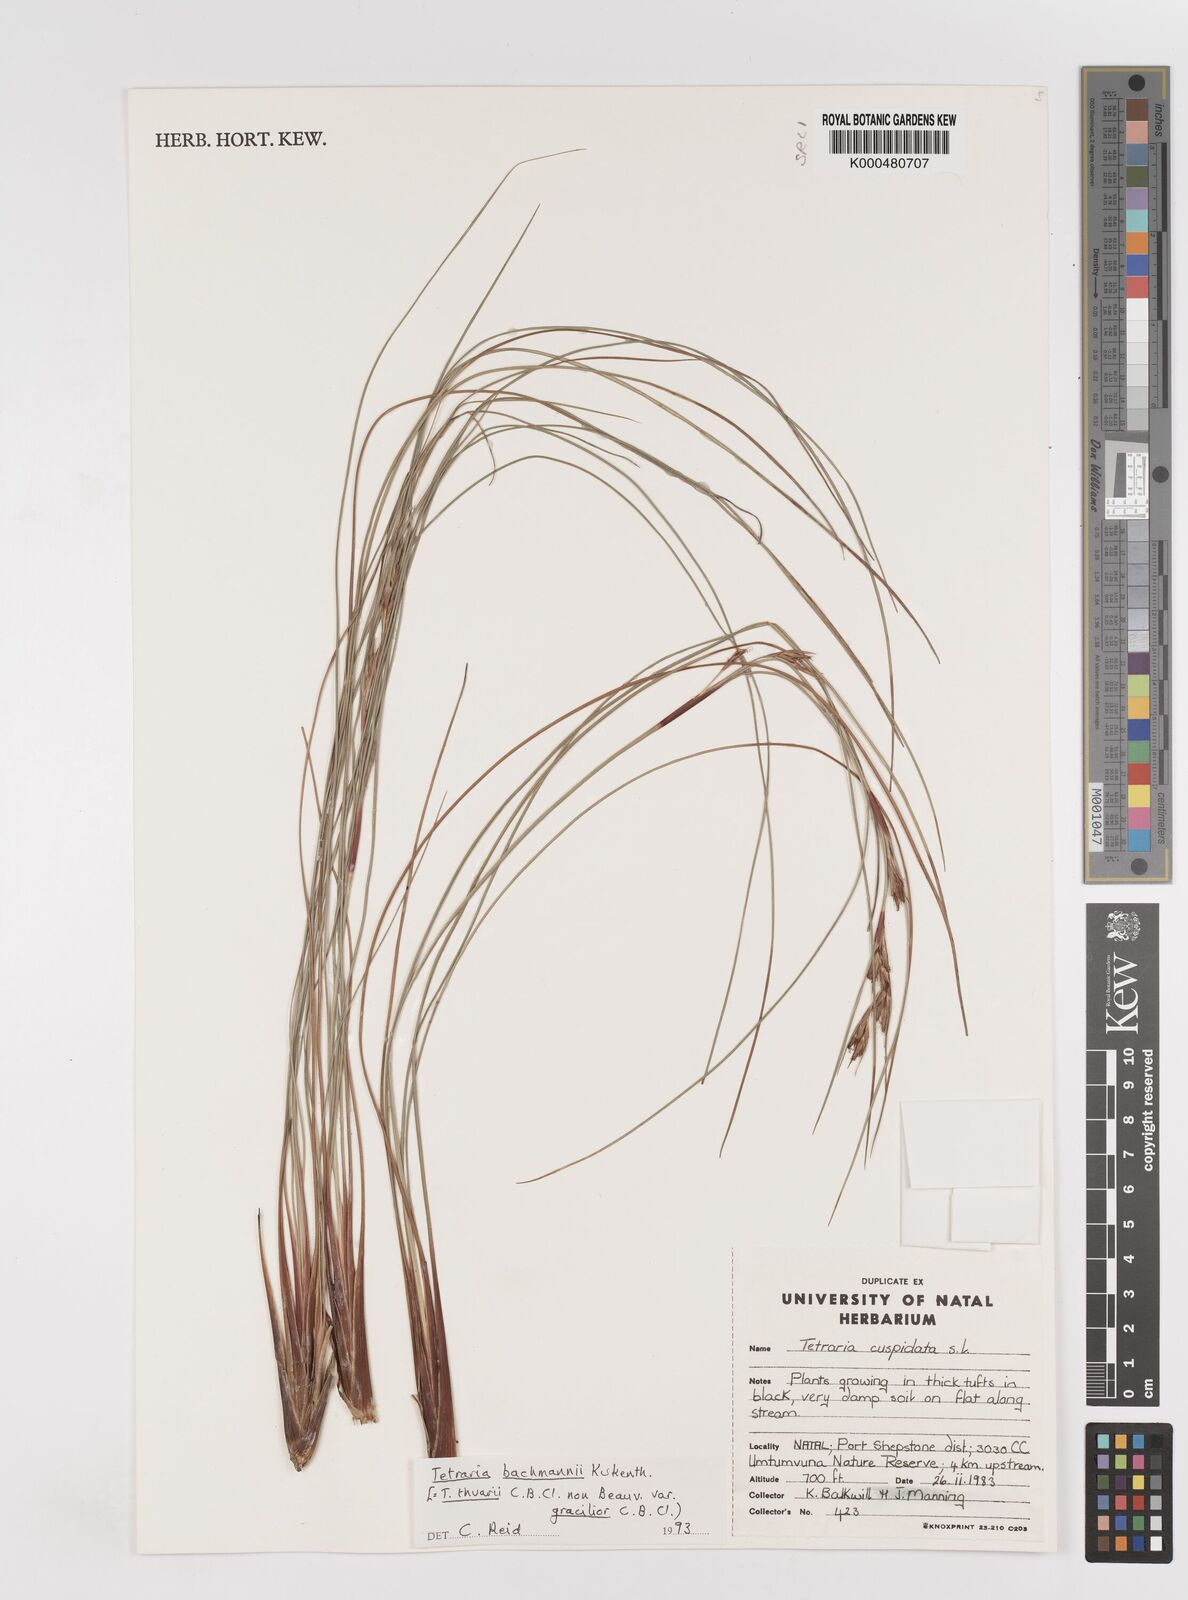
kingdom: Plantae
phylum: Tracheophyta
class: Liliopsida
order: Poales
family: Cyperaceae
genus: Cyathocoma
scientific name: Cyathocoma
